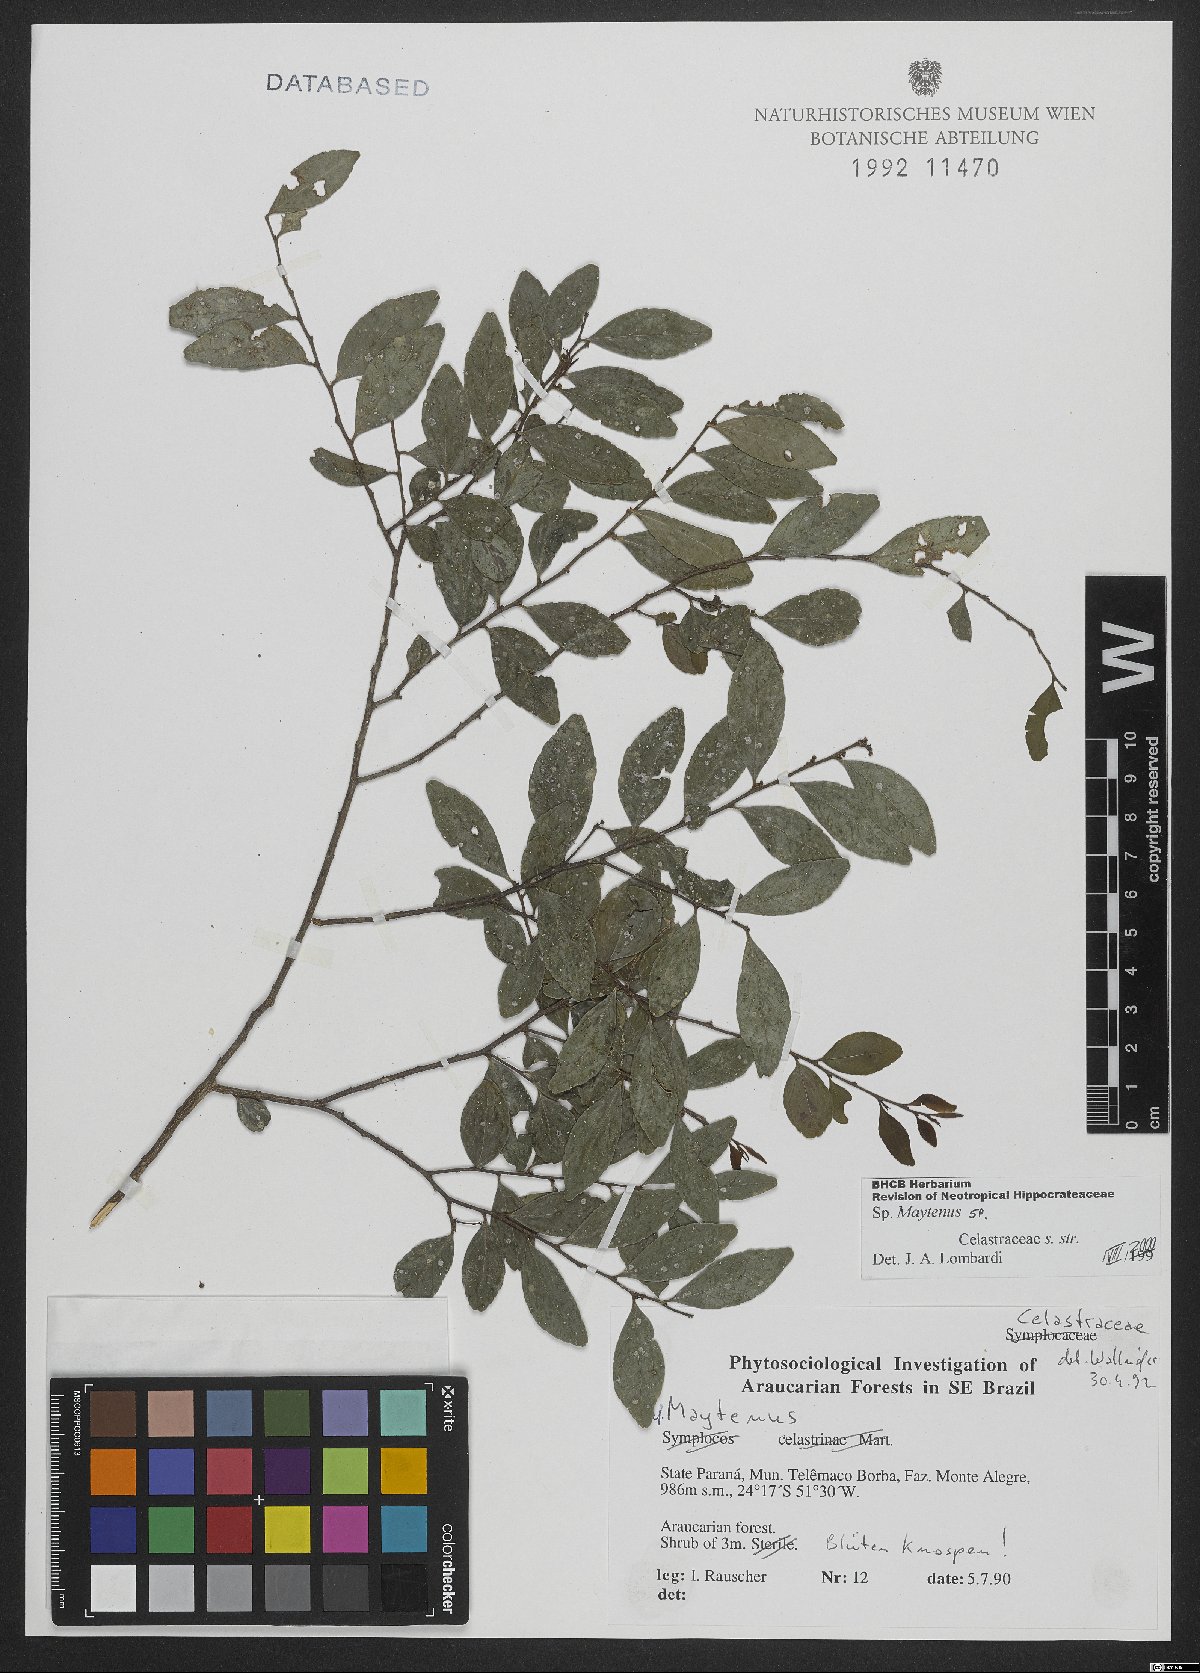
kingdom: Plantae
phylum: Tracheophyta
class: Magnoliopsida
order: Celastrales
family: Celastraceae
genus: Maytenus
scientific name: Maytenus
